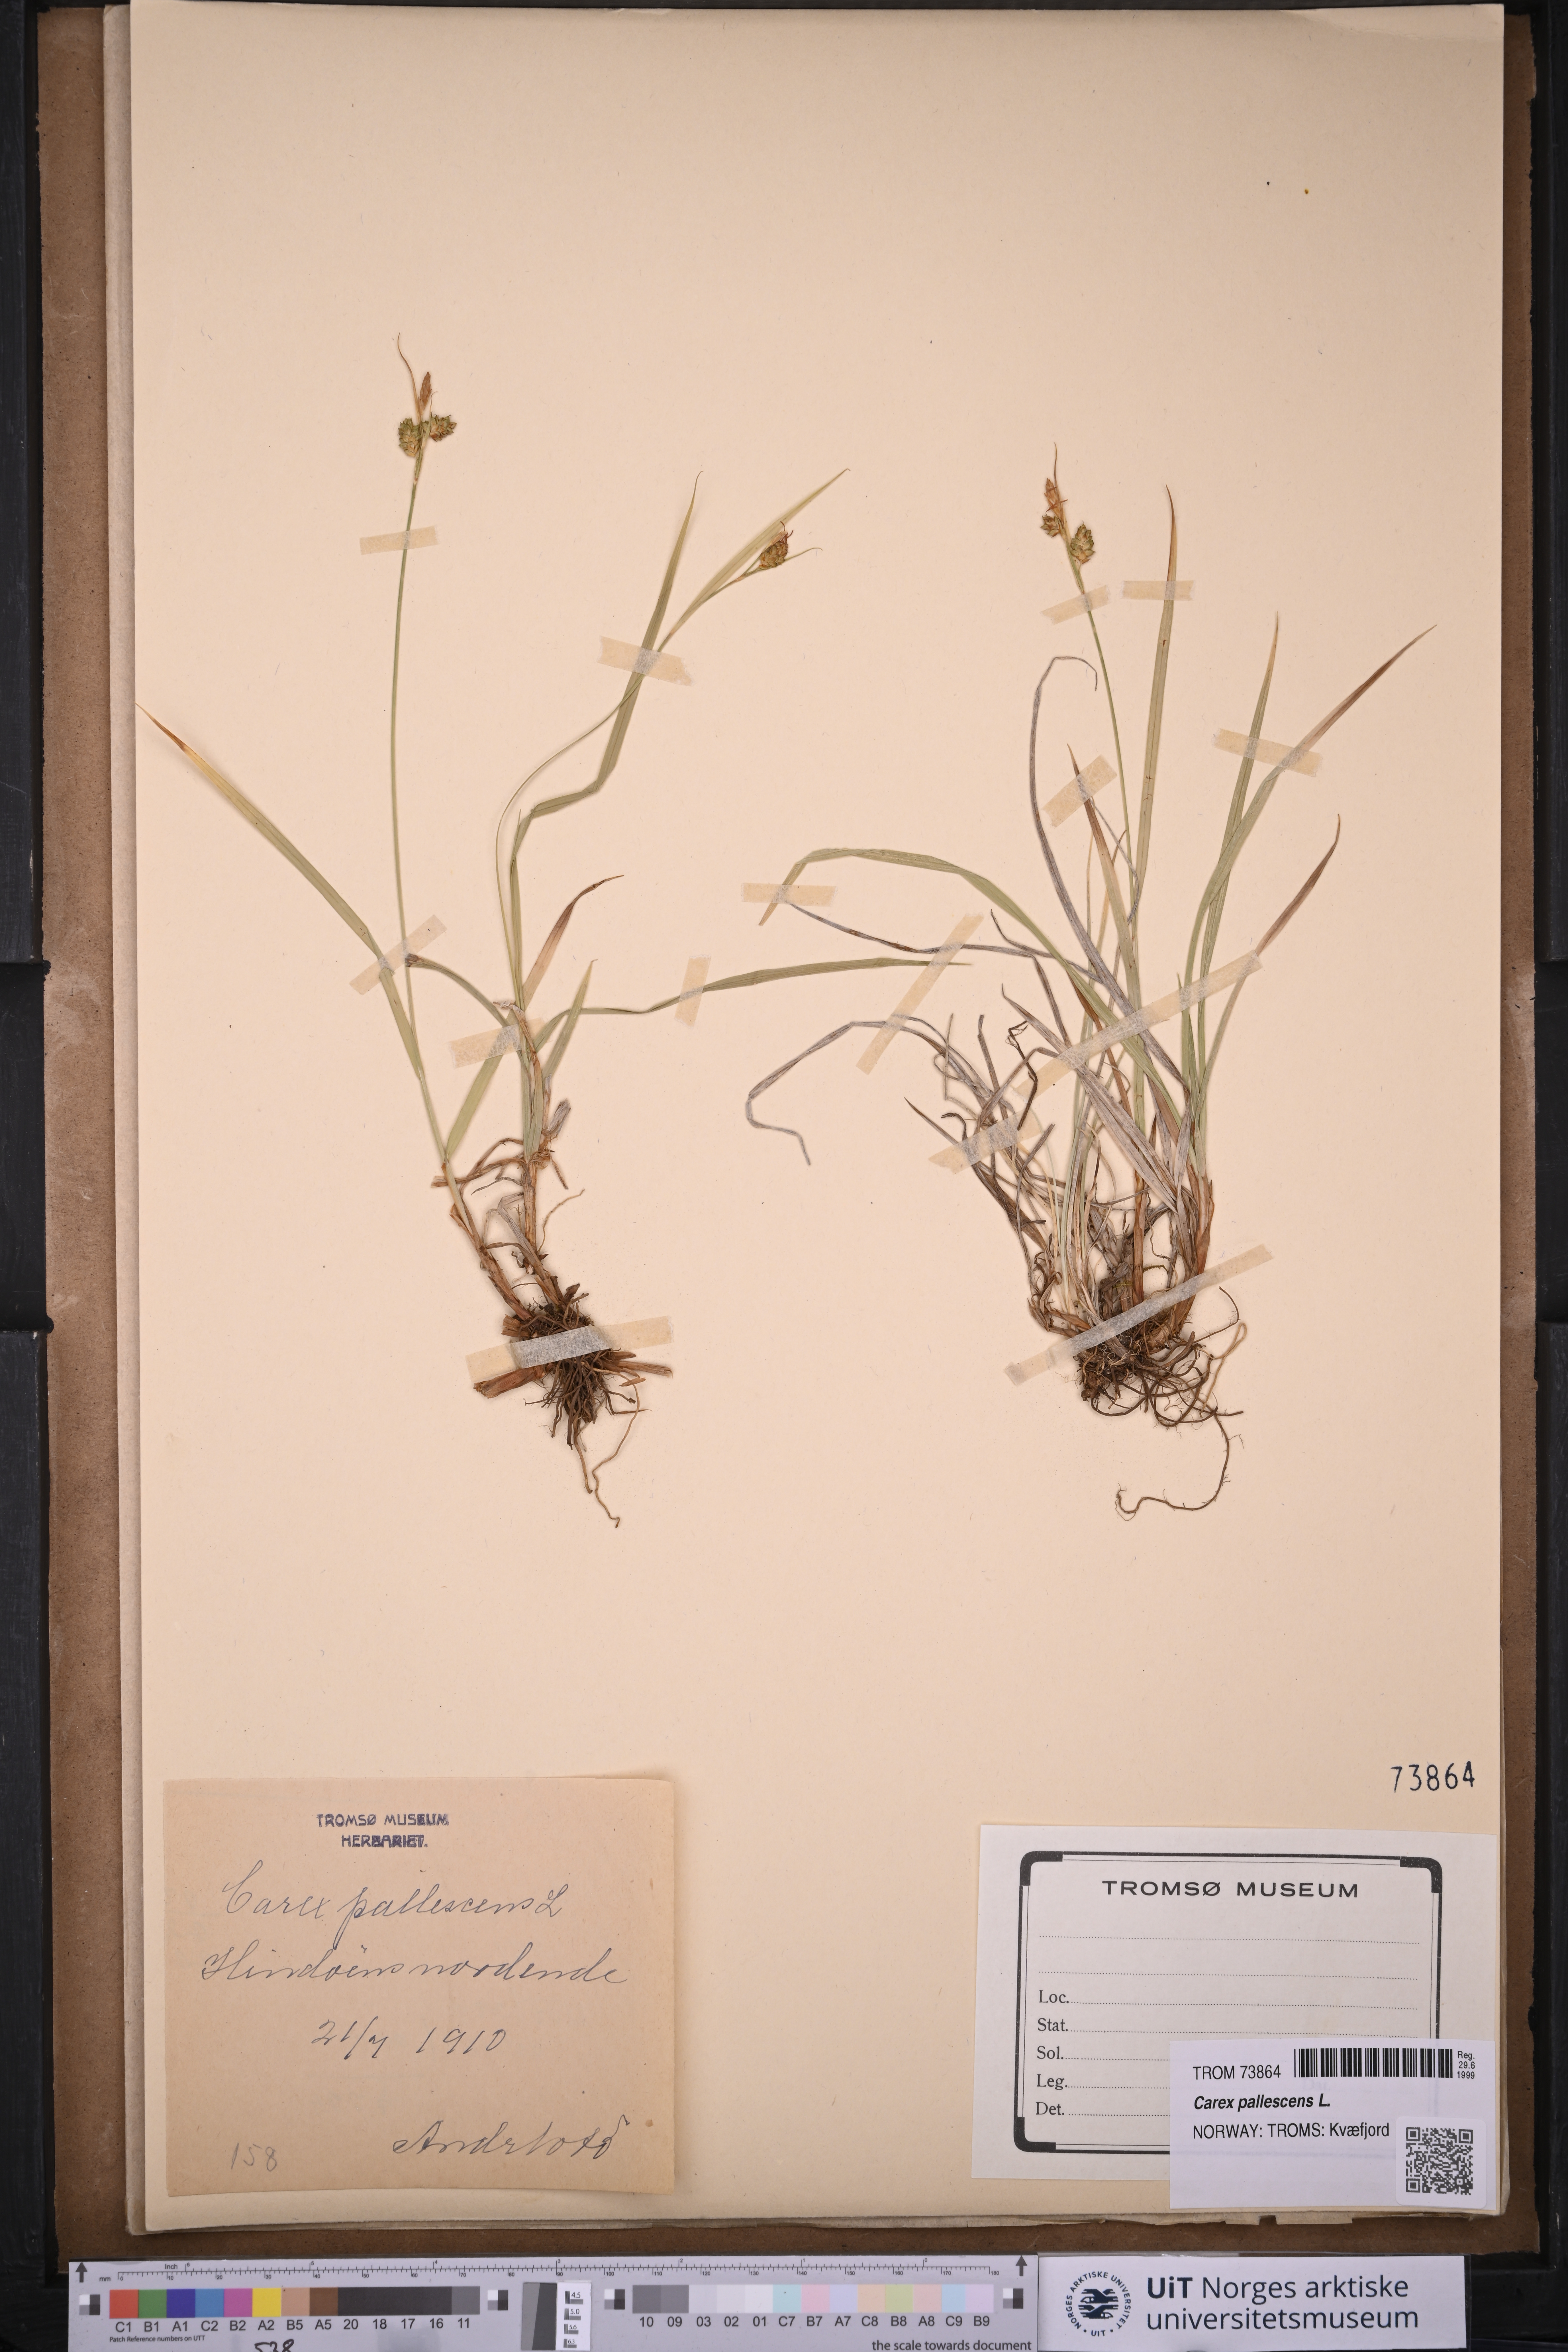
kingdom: Plantae
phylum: Tracheophyta
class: Liliopsida
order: Poales
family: Cyperaceae
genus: Carex
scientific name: Carex pallescens
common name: Pale sedge
